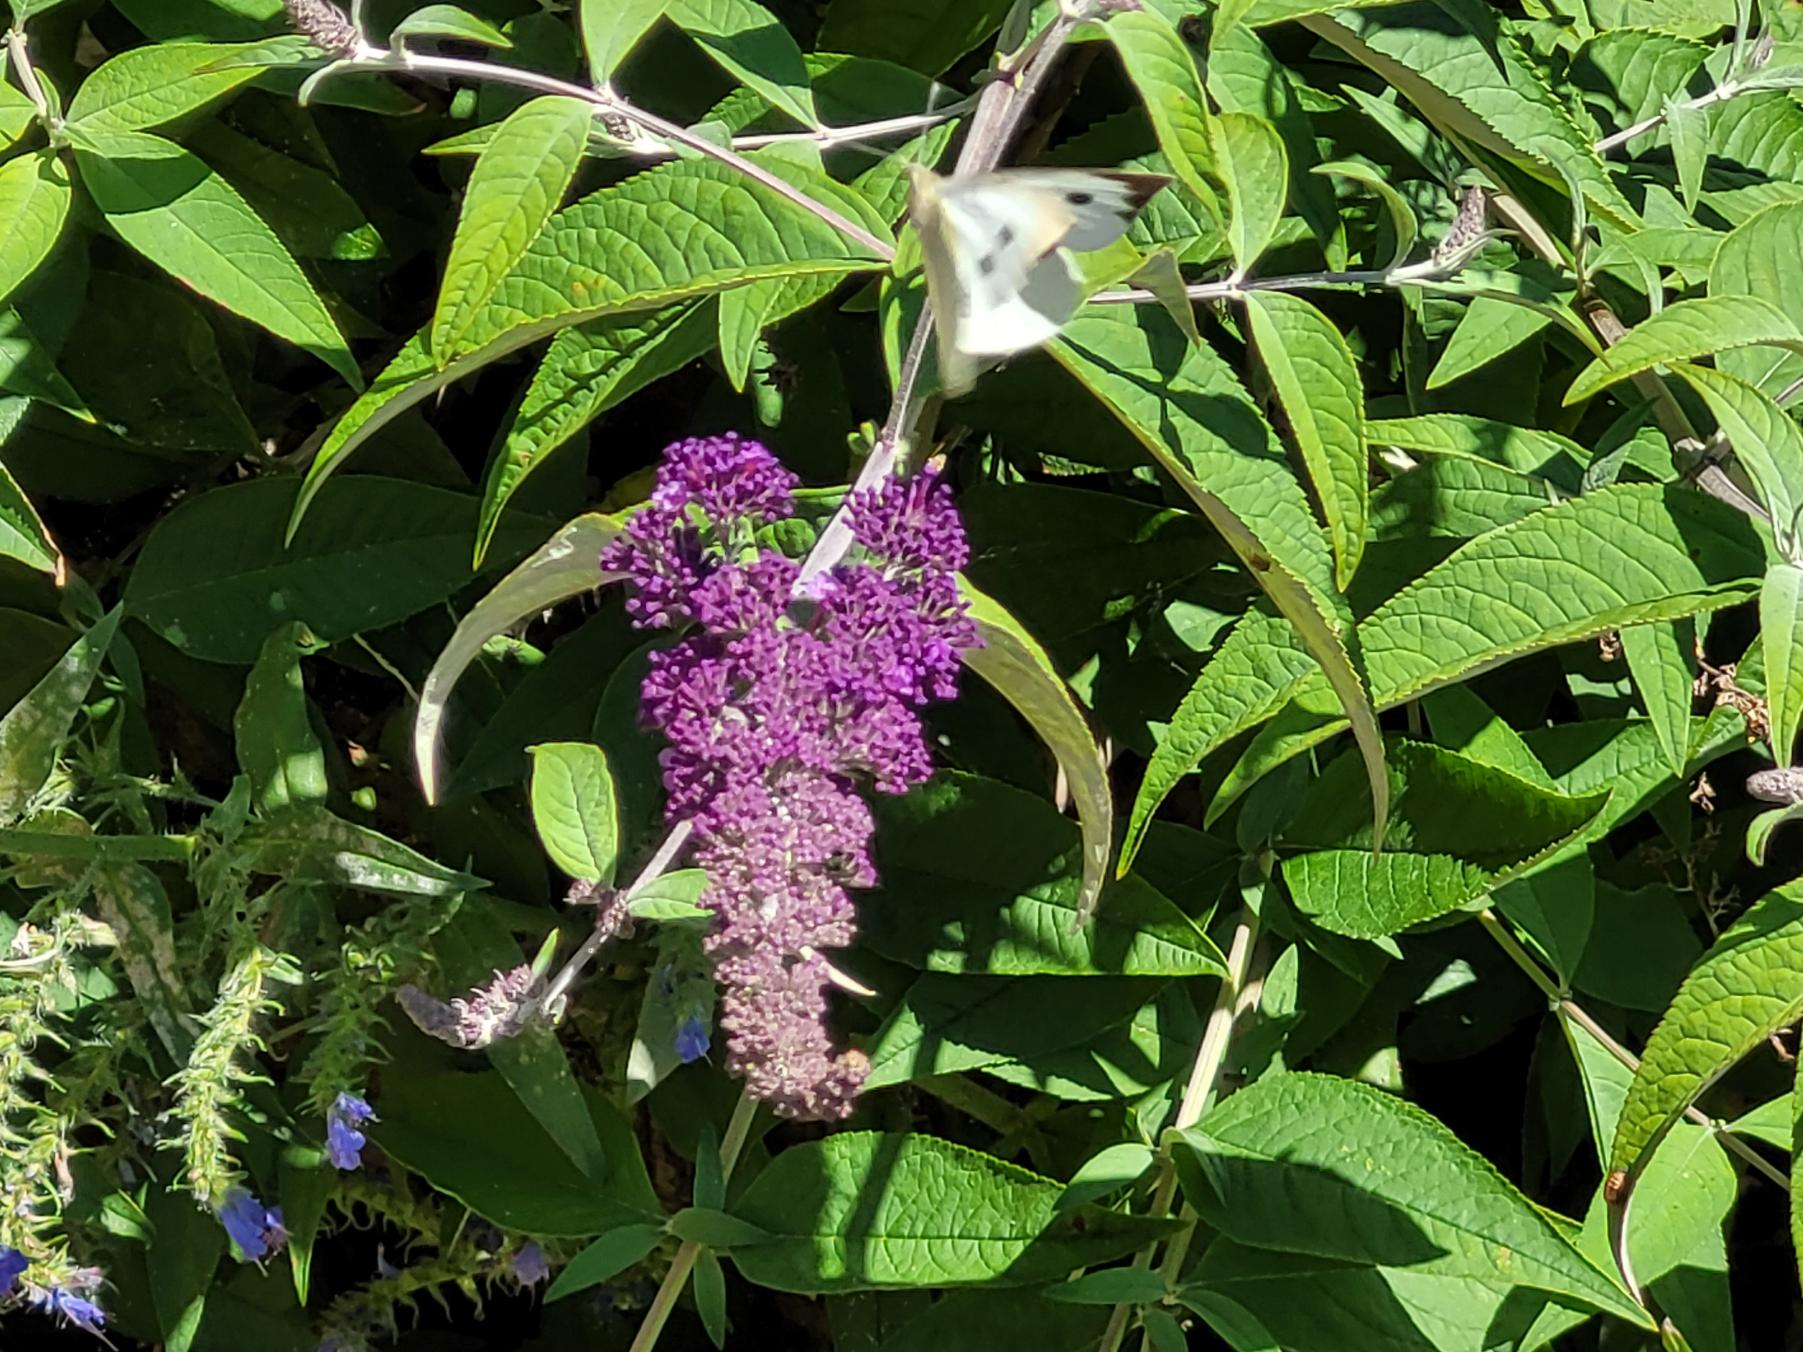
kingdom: Animalia
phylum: Arthropoda
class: Insecta
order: Lepidoptera
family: Pieridae
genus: Pieris
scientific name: Pieris brassicae
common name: Stor kålsommerfugl
